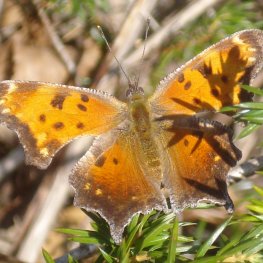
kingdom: Animalia
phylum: Arthropoda
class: Insecta
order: Lepidoptera
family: Nymphalidae
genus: Polygonia
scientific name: Polygonia progne
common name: Gray Comma
